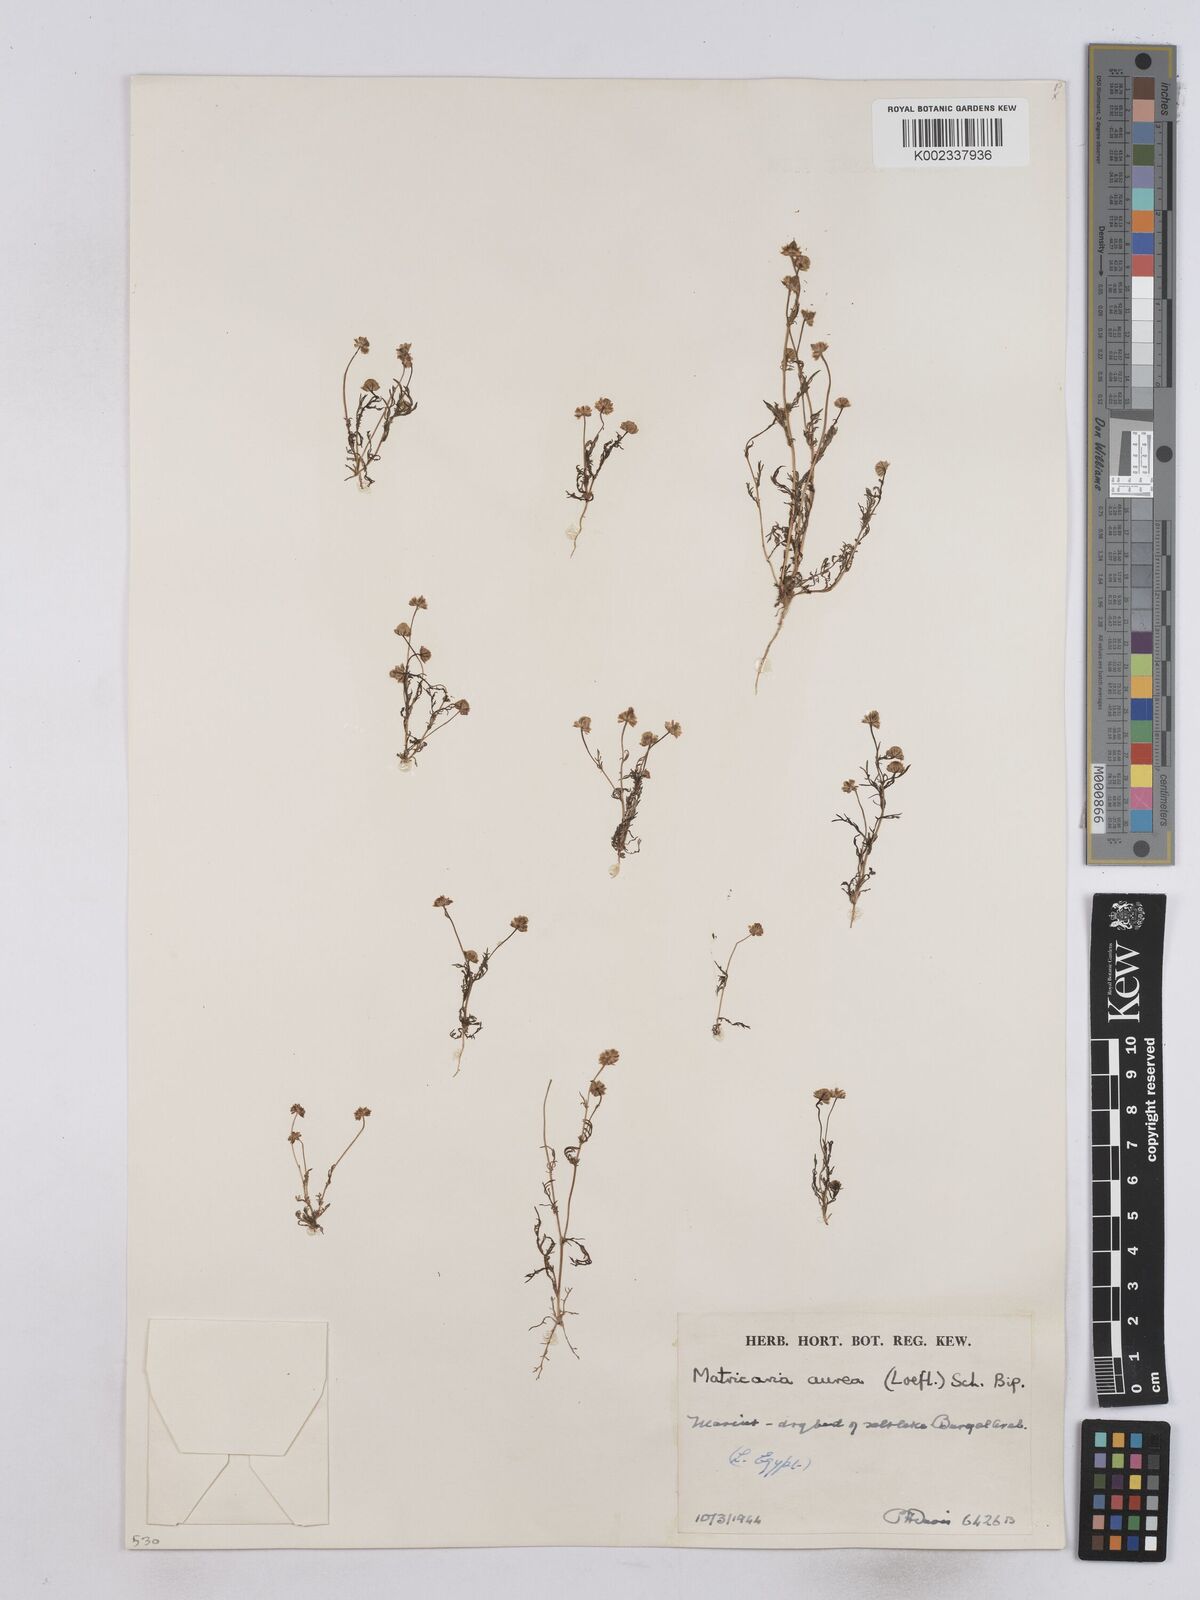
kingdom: Plantae
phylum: Tracheophyta
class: Magnoliopsida
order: Asterales
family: Asteraceae
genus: Matricaria
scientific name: Matricaria aurea
